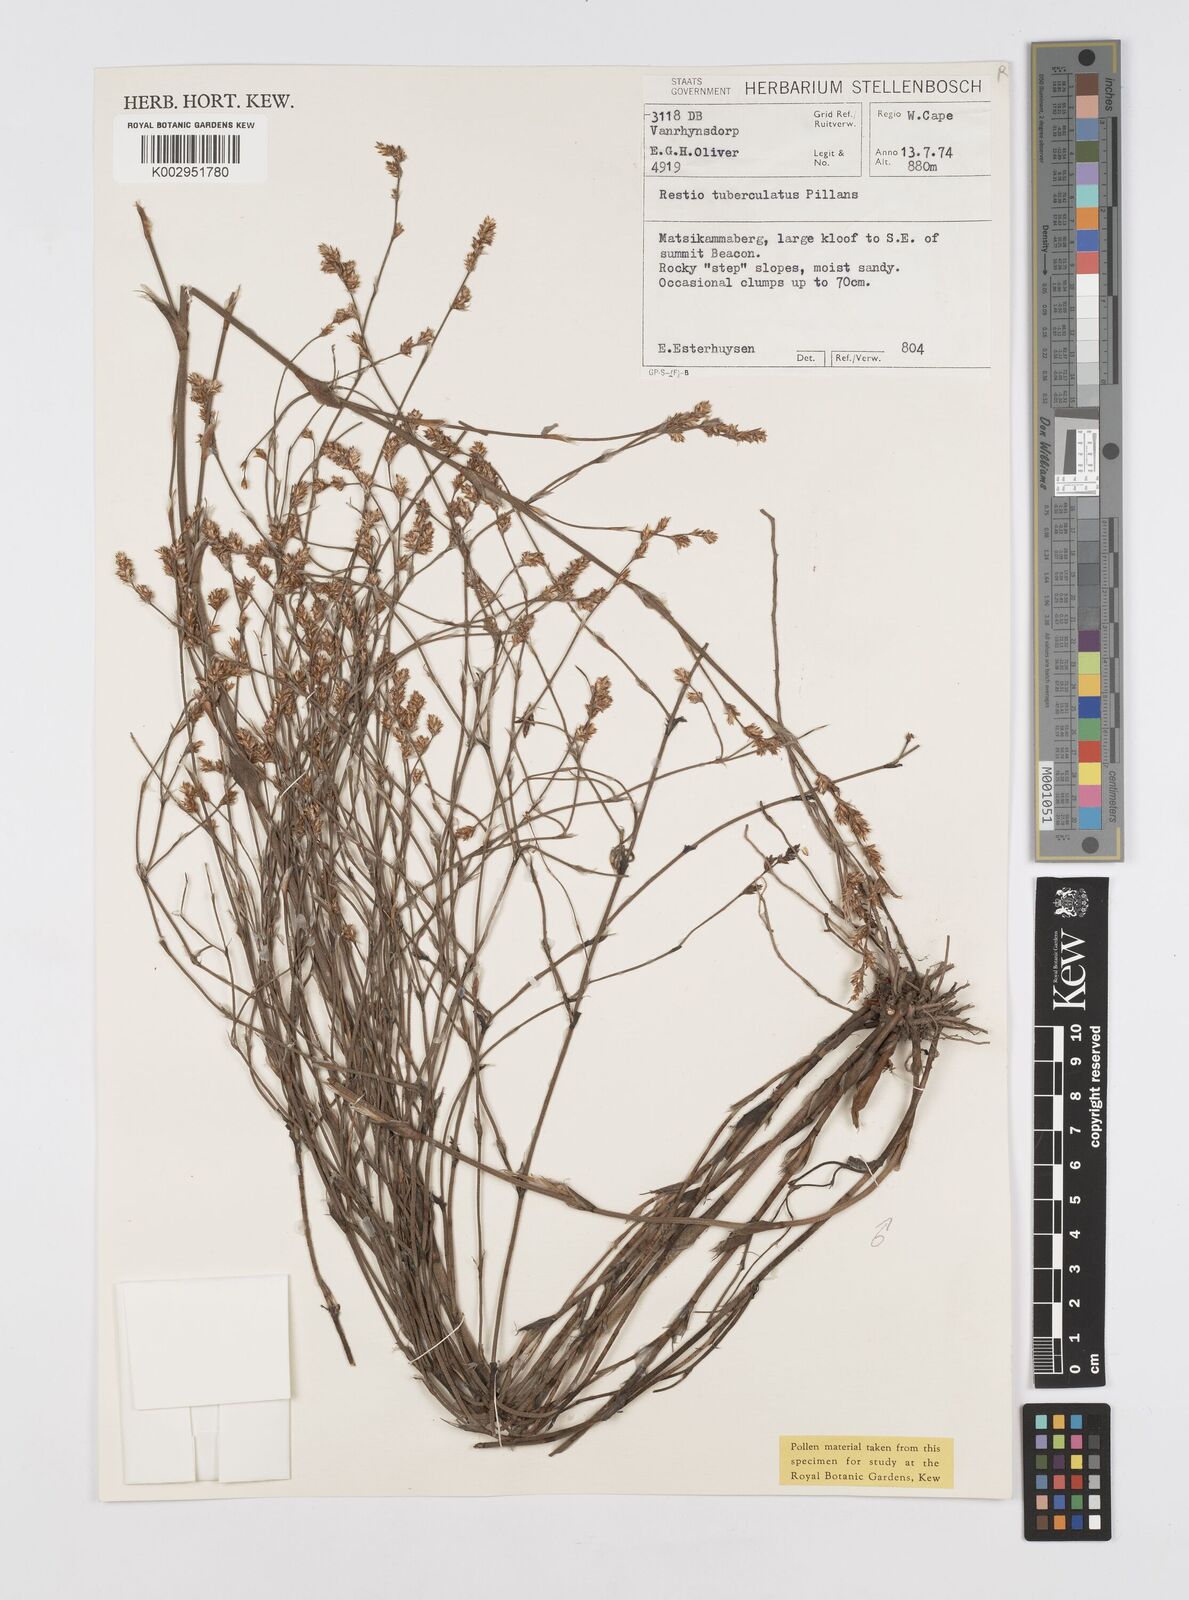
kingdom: Plantae
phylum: Tracheophyta
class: Liliopsida
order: Poales
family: Restionaceae
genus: Restio
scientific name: Restio tuberculatus
